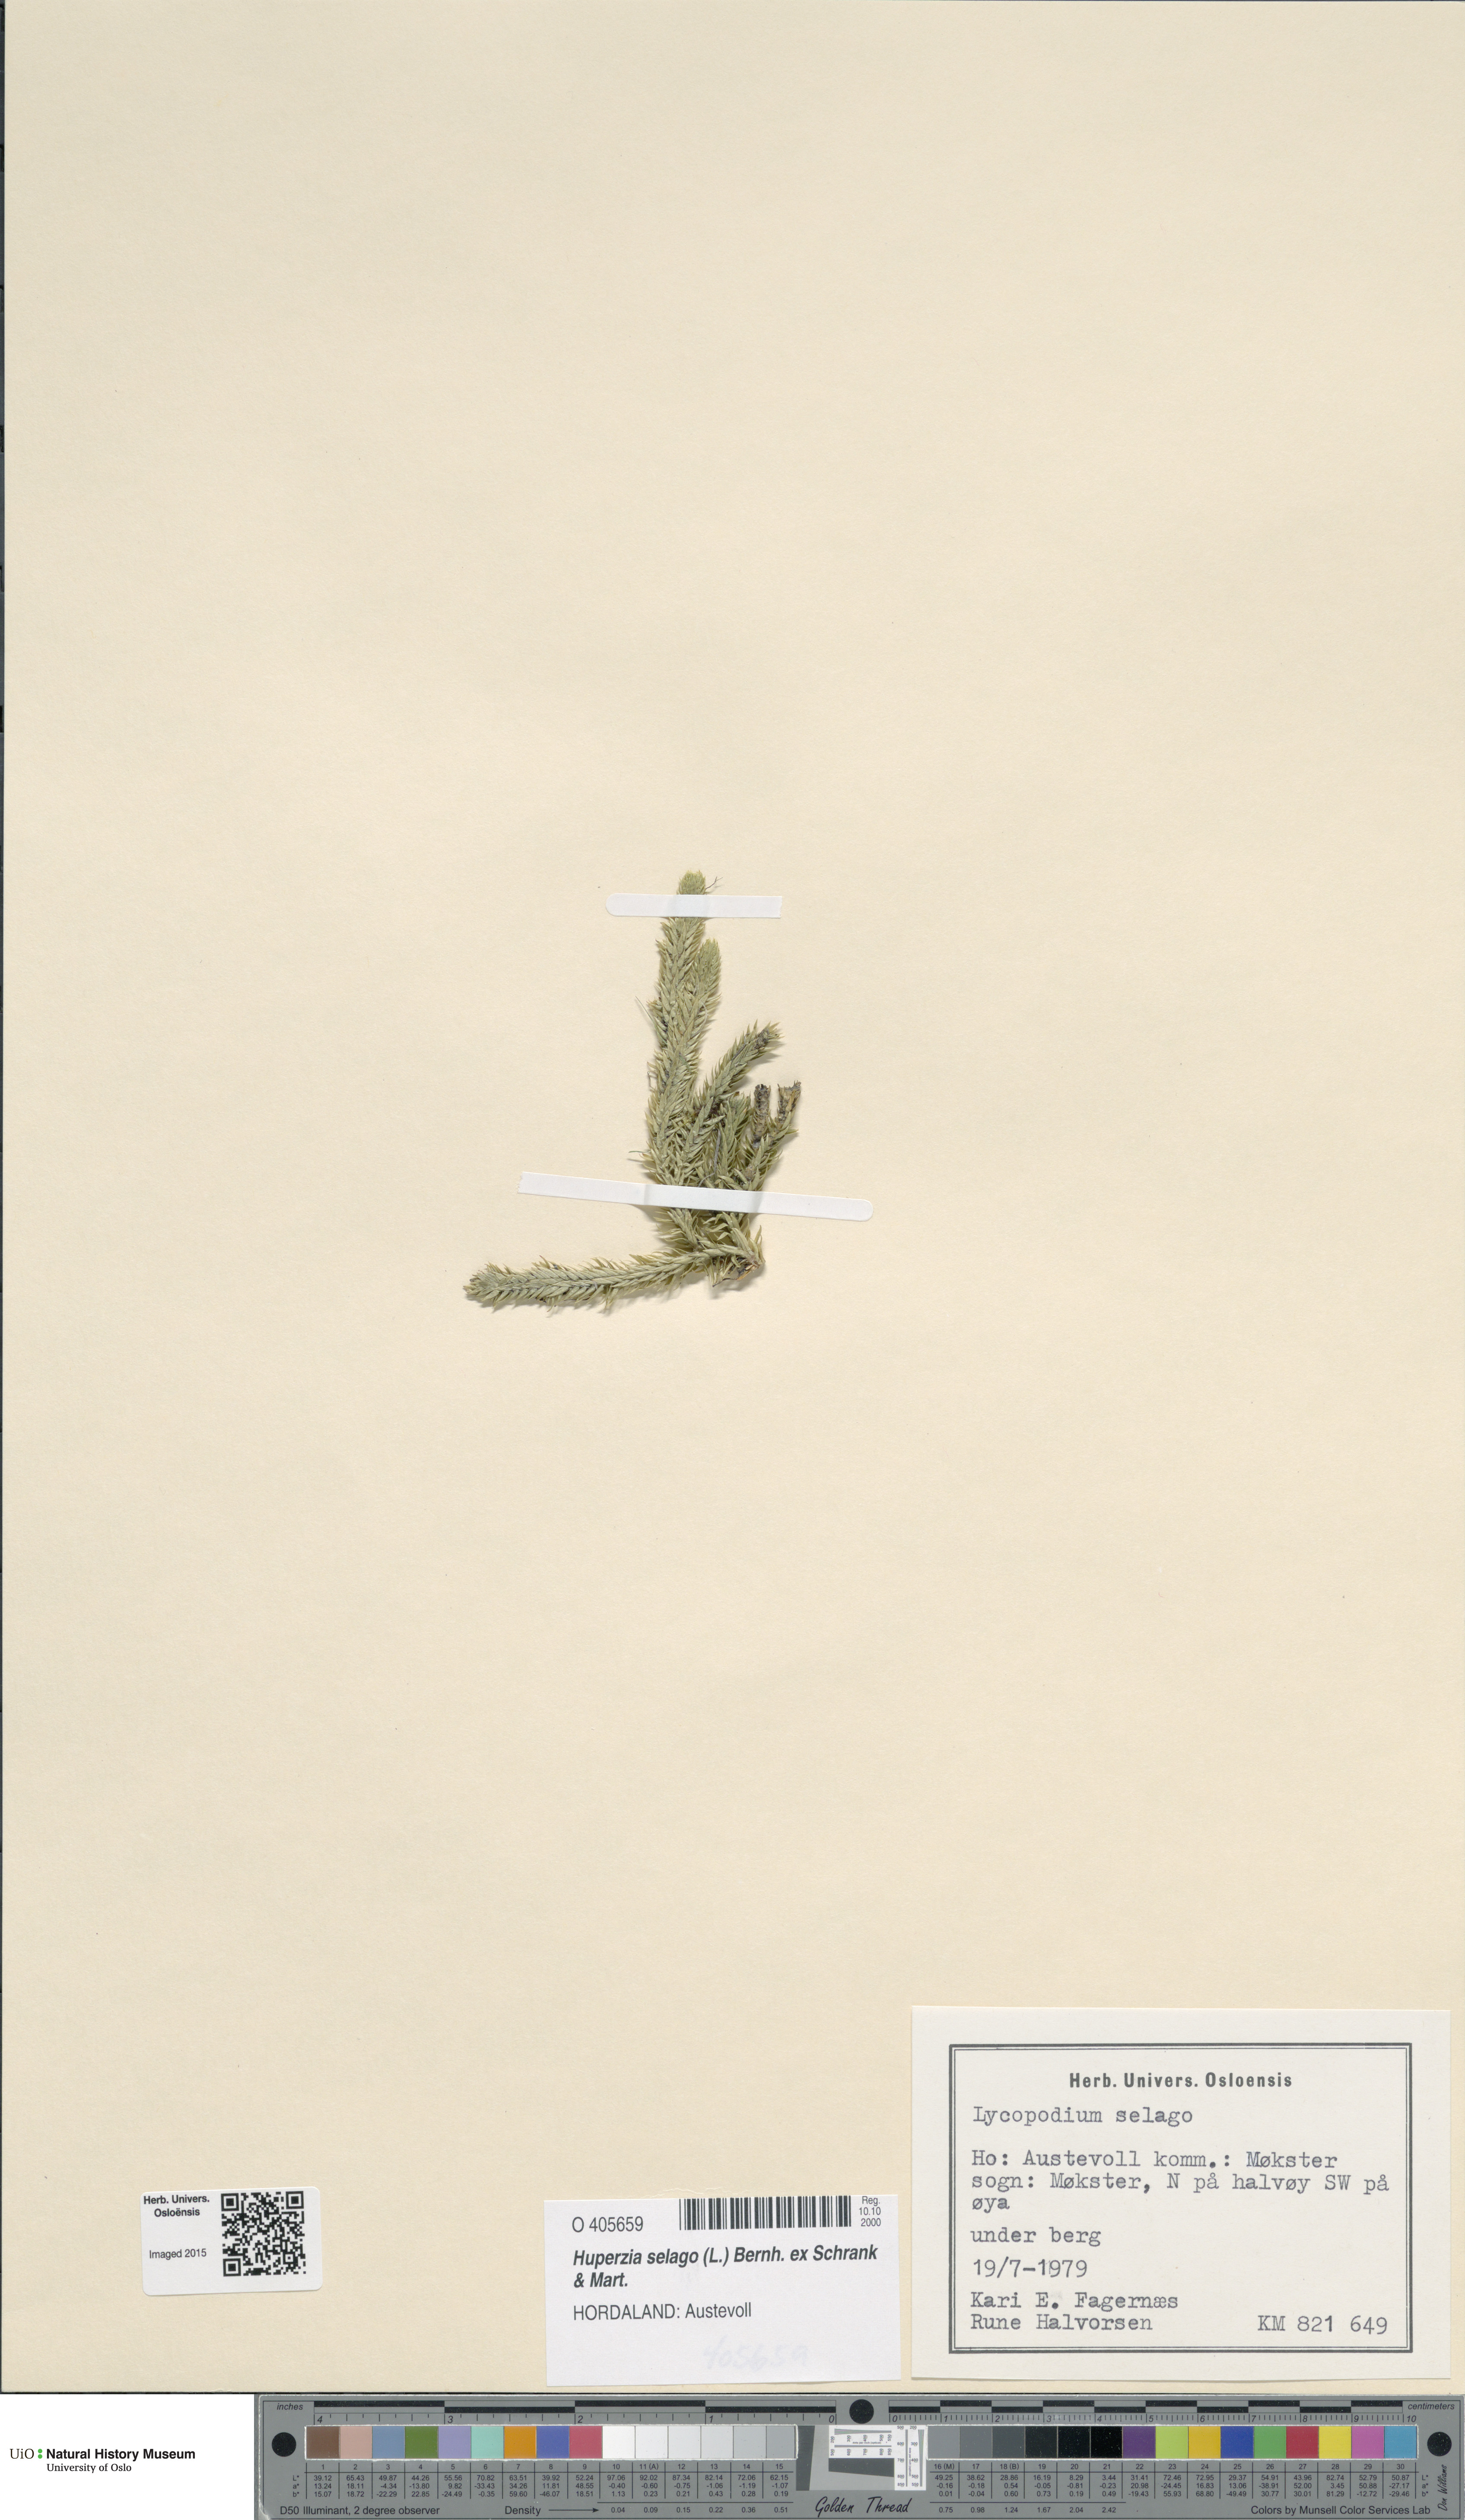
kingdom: Plantae
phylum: Tracheophyta
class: Lycopodiopsida
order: Lycopodiales
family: Lycopodiaceae
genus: Huperzia
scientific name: Huperzia selago
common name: Northern firmoss
